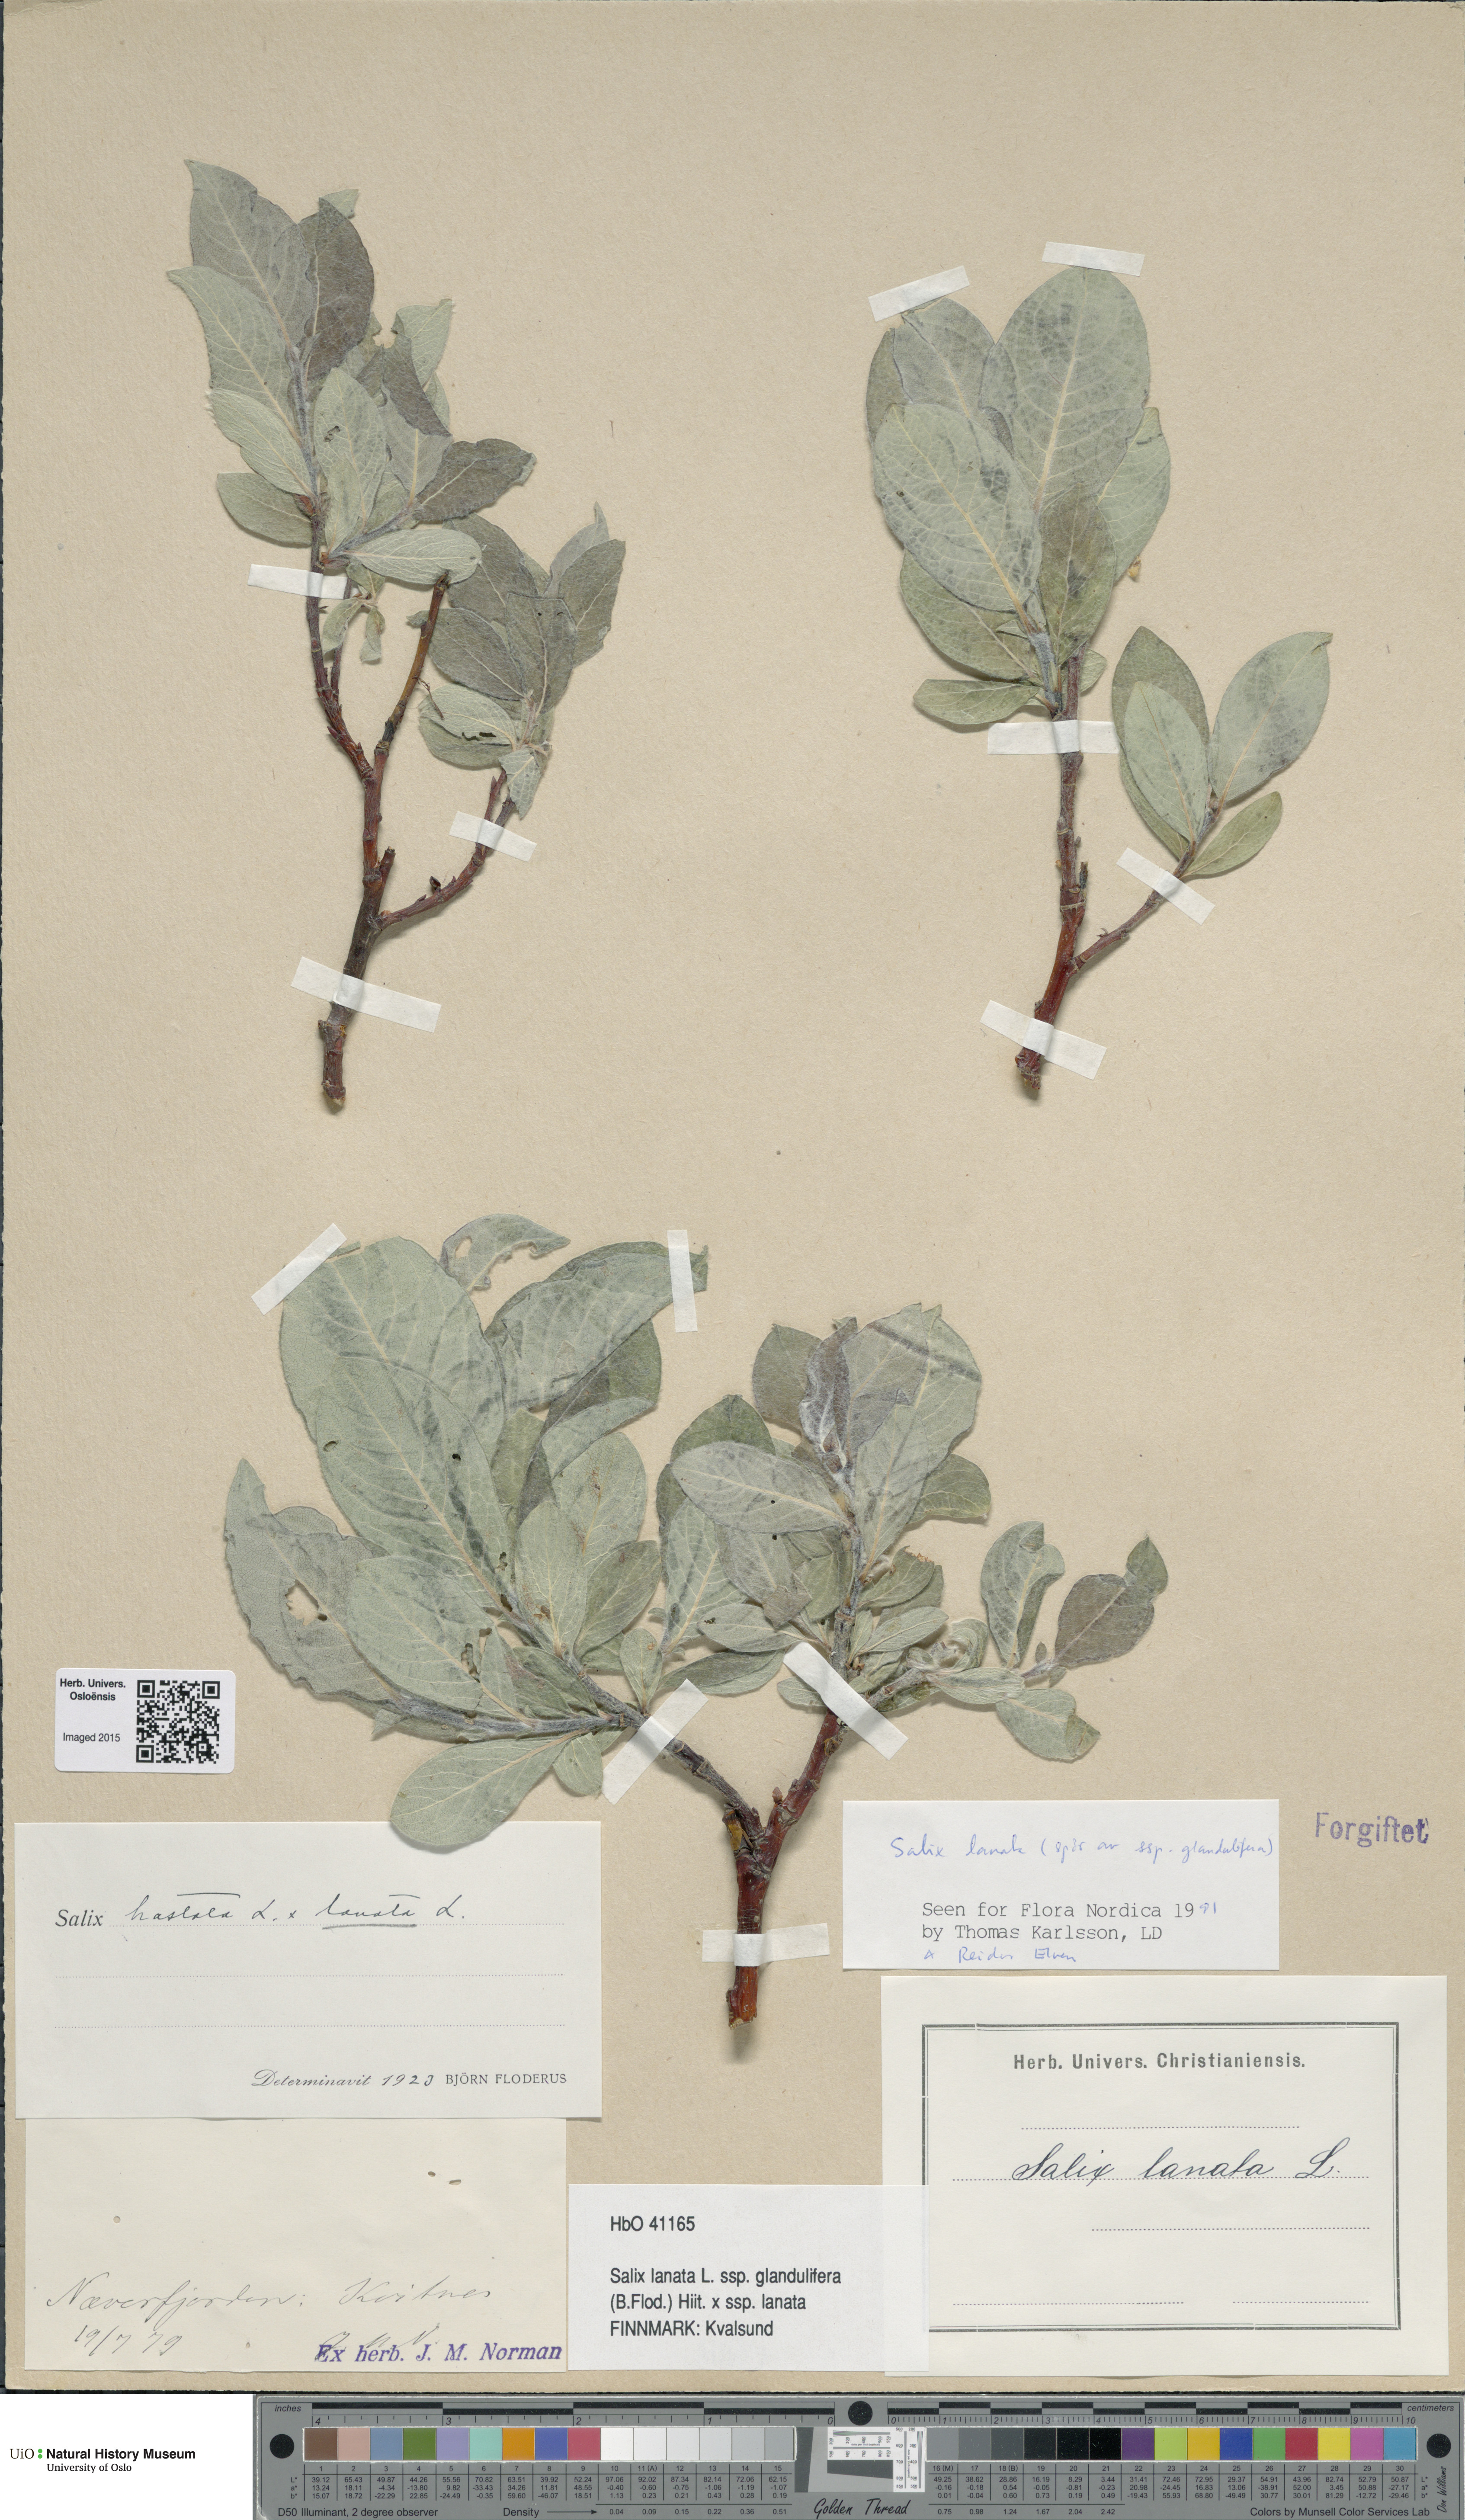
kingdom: Plantae
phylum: Tracheophyta
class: Magnoliopsida
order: Malpighiales
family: Salicaceae
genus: Salix
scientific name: Salix
